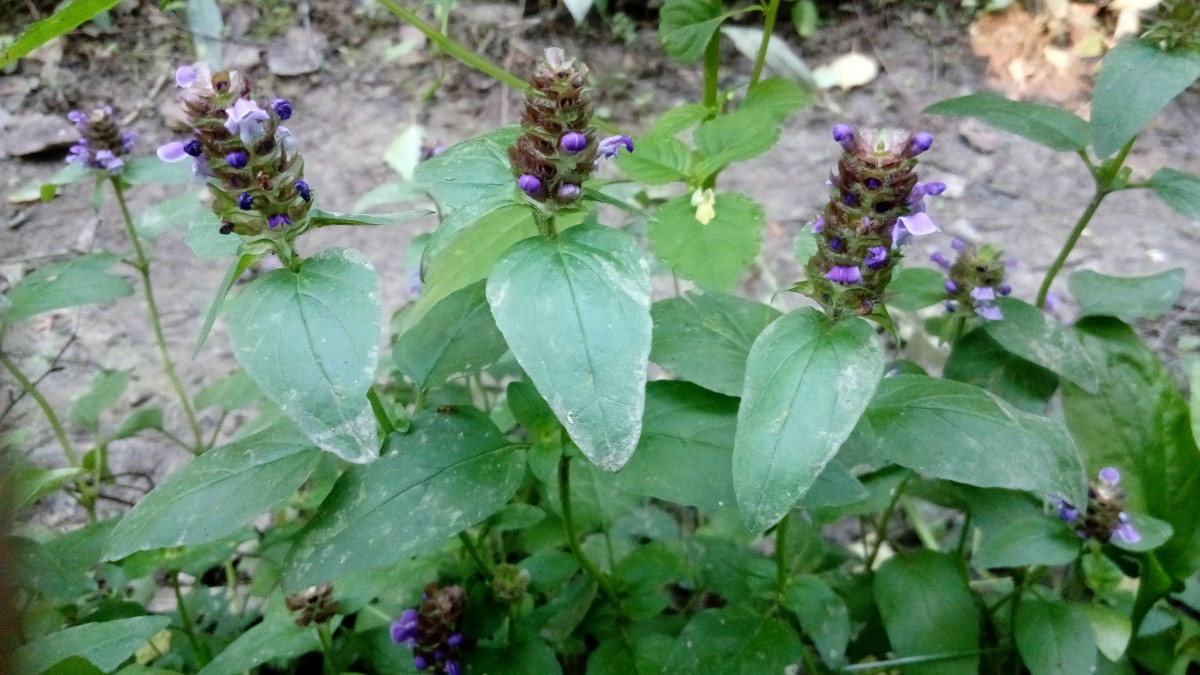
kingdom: Plantae
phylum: Tracheophyta
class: Magnoliopsida
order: Lamiales
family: Lamiaceae
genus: Prunella
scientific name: Prunella vulgaris
